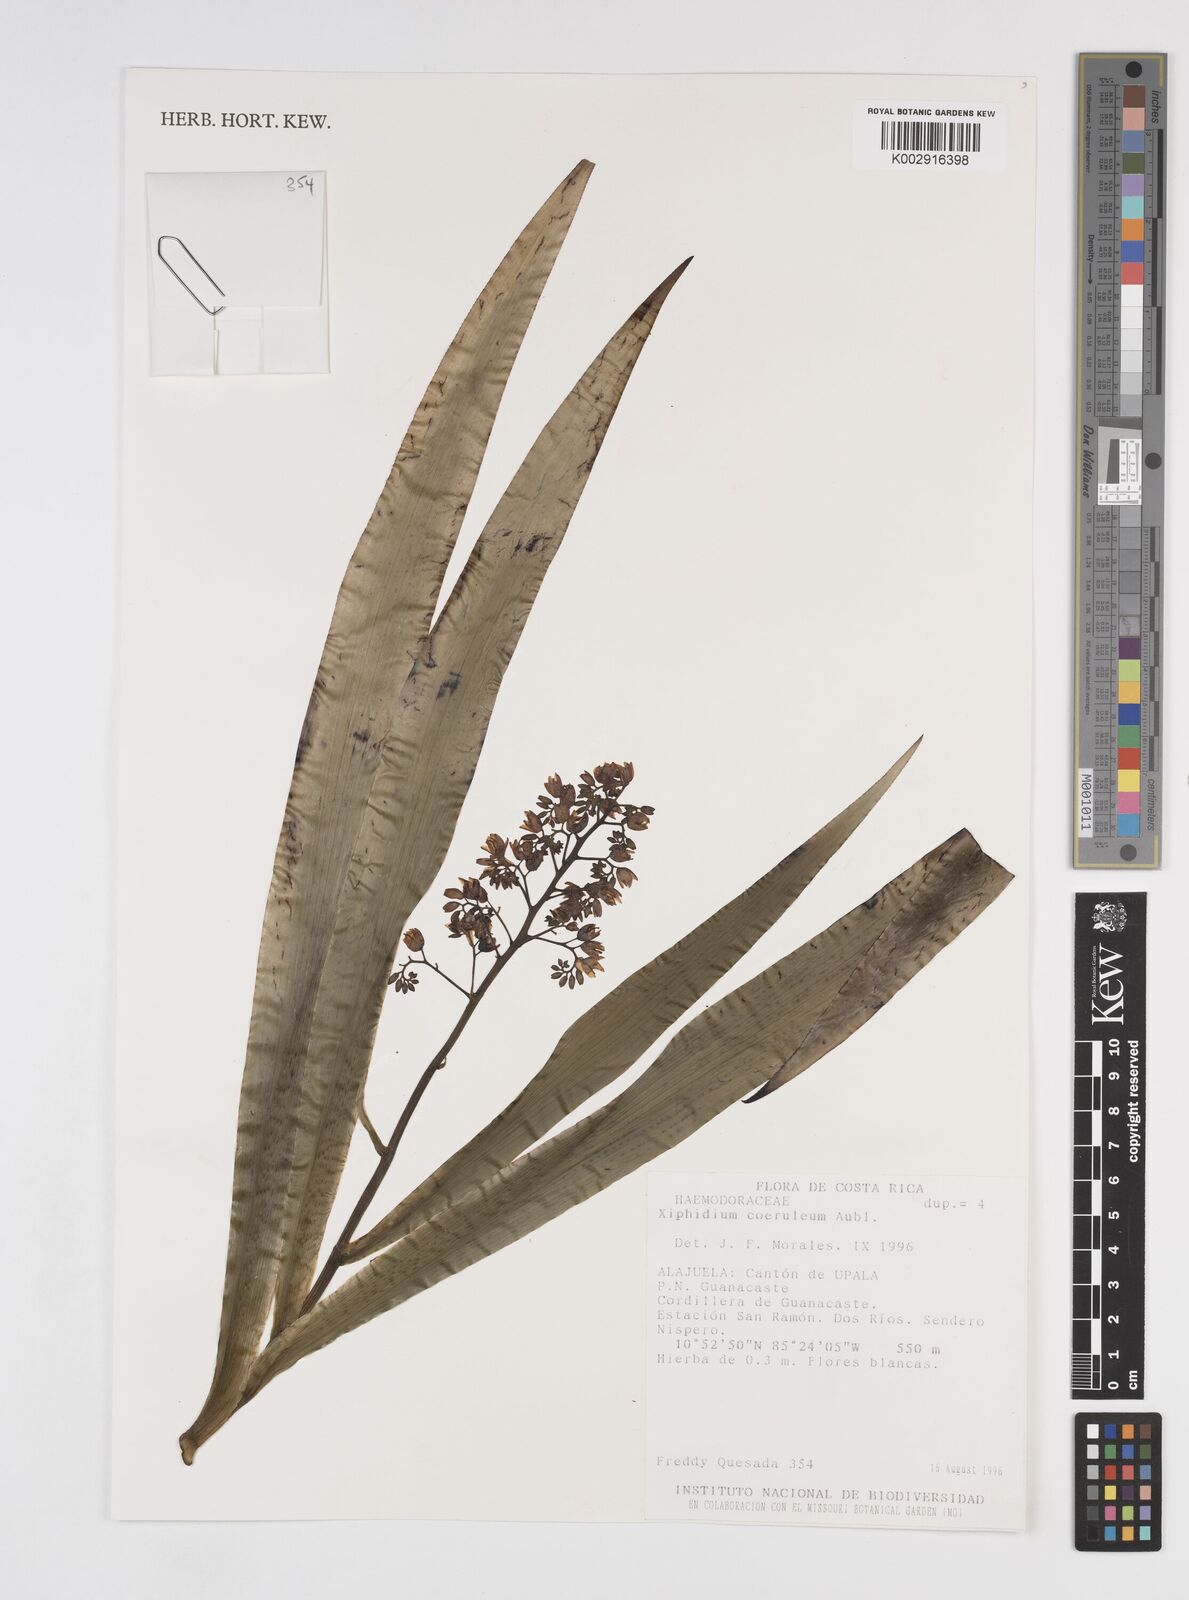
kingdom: Plantae
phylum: Tracheophyta
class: Liliopsida
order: Commelinales
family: Haemodoraceae
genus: Xiphidium
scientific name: Xiphidium caeruleum
